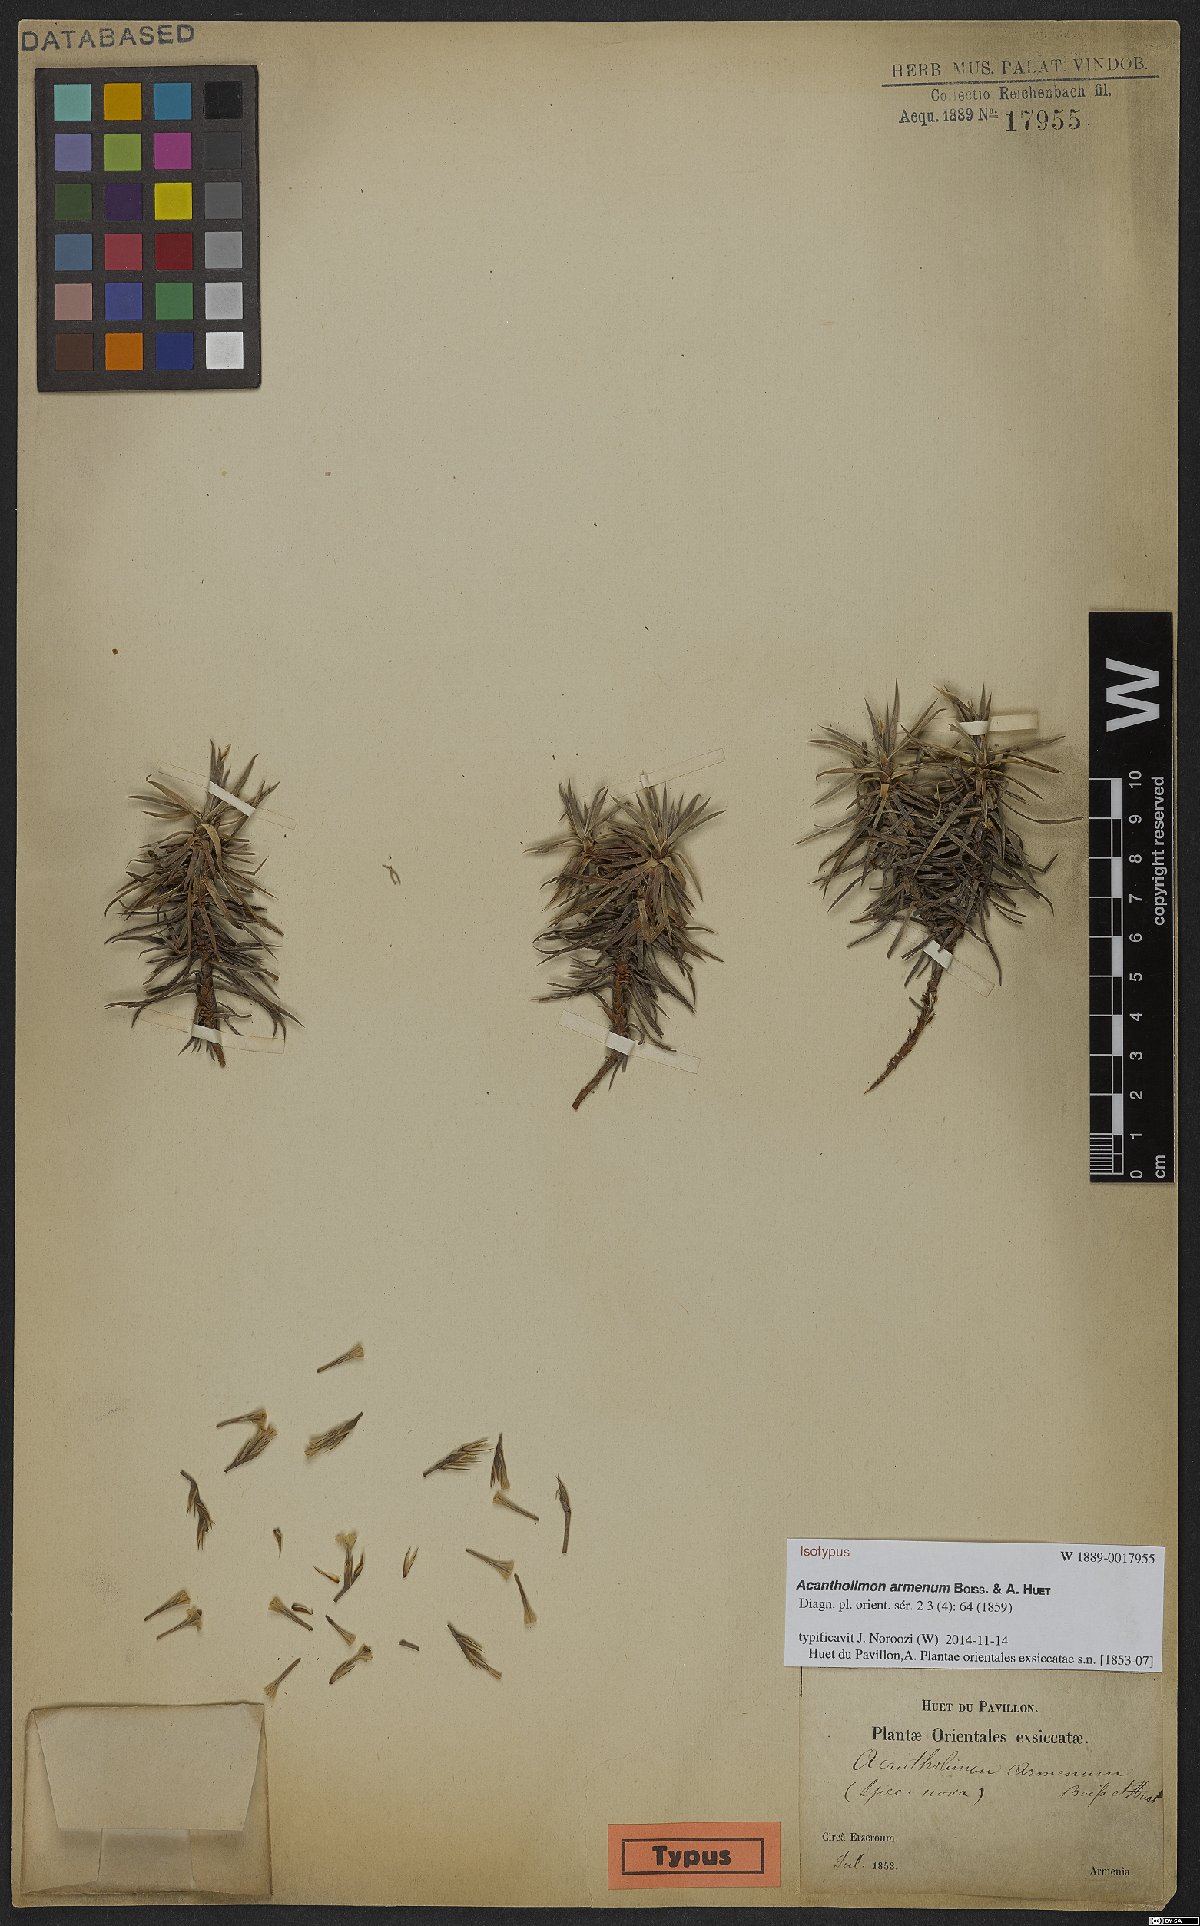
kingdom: Plantae
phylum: Tracheophyta
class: Magnoliopsida
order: Caryophyllales
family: Plumbaginaceae
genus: Acantholimon
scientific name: Acantholimon armenum
